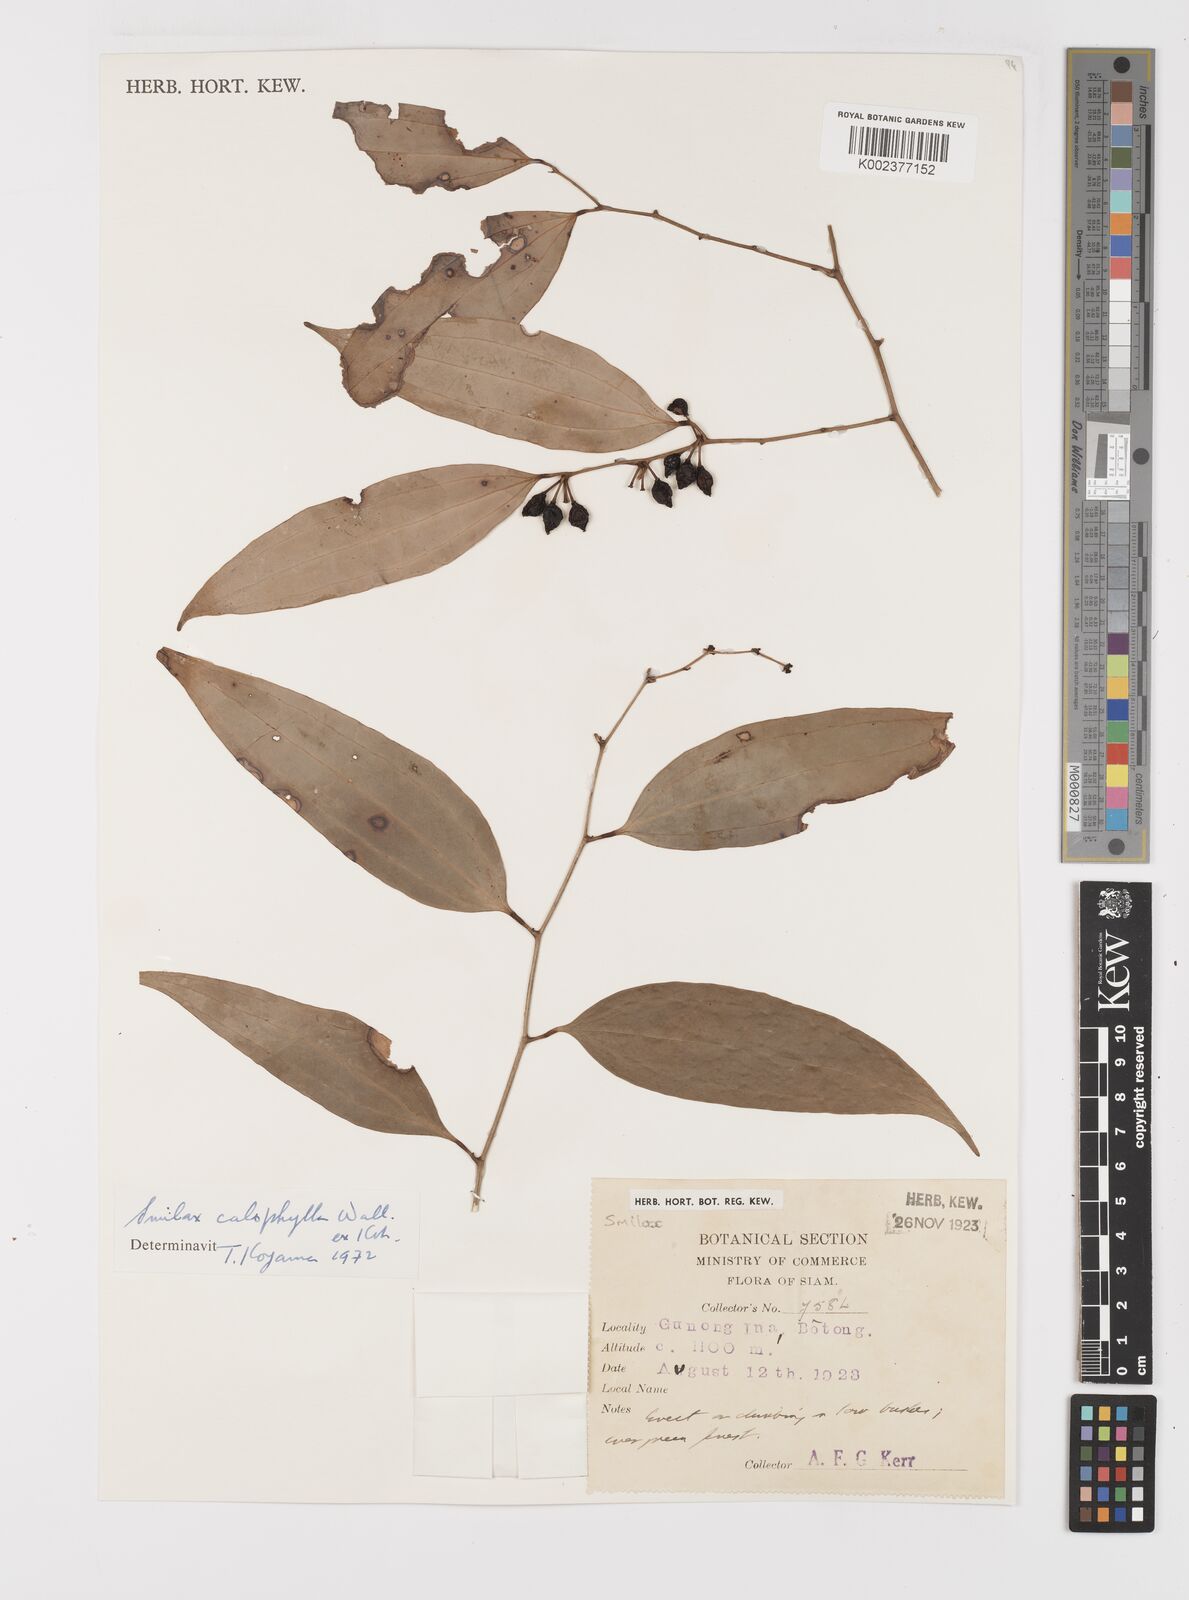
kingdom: Plantae
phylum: Tracheophyta
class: Liliopsida
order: Liliales
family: Smilacaceae
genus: Smilax
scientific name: Smilax calophylla
